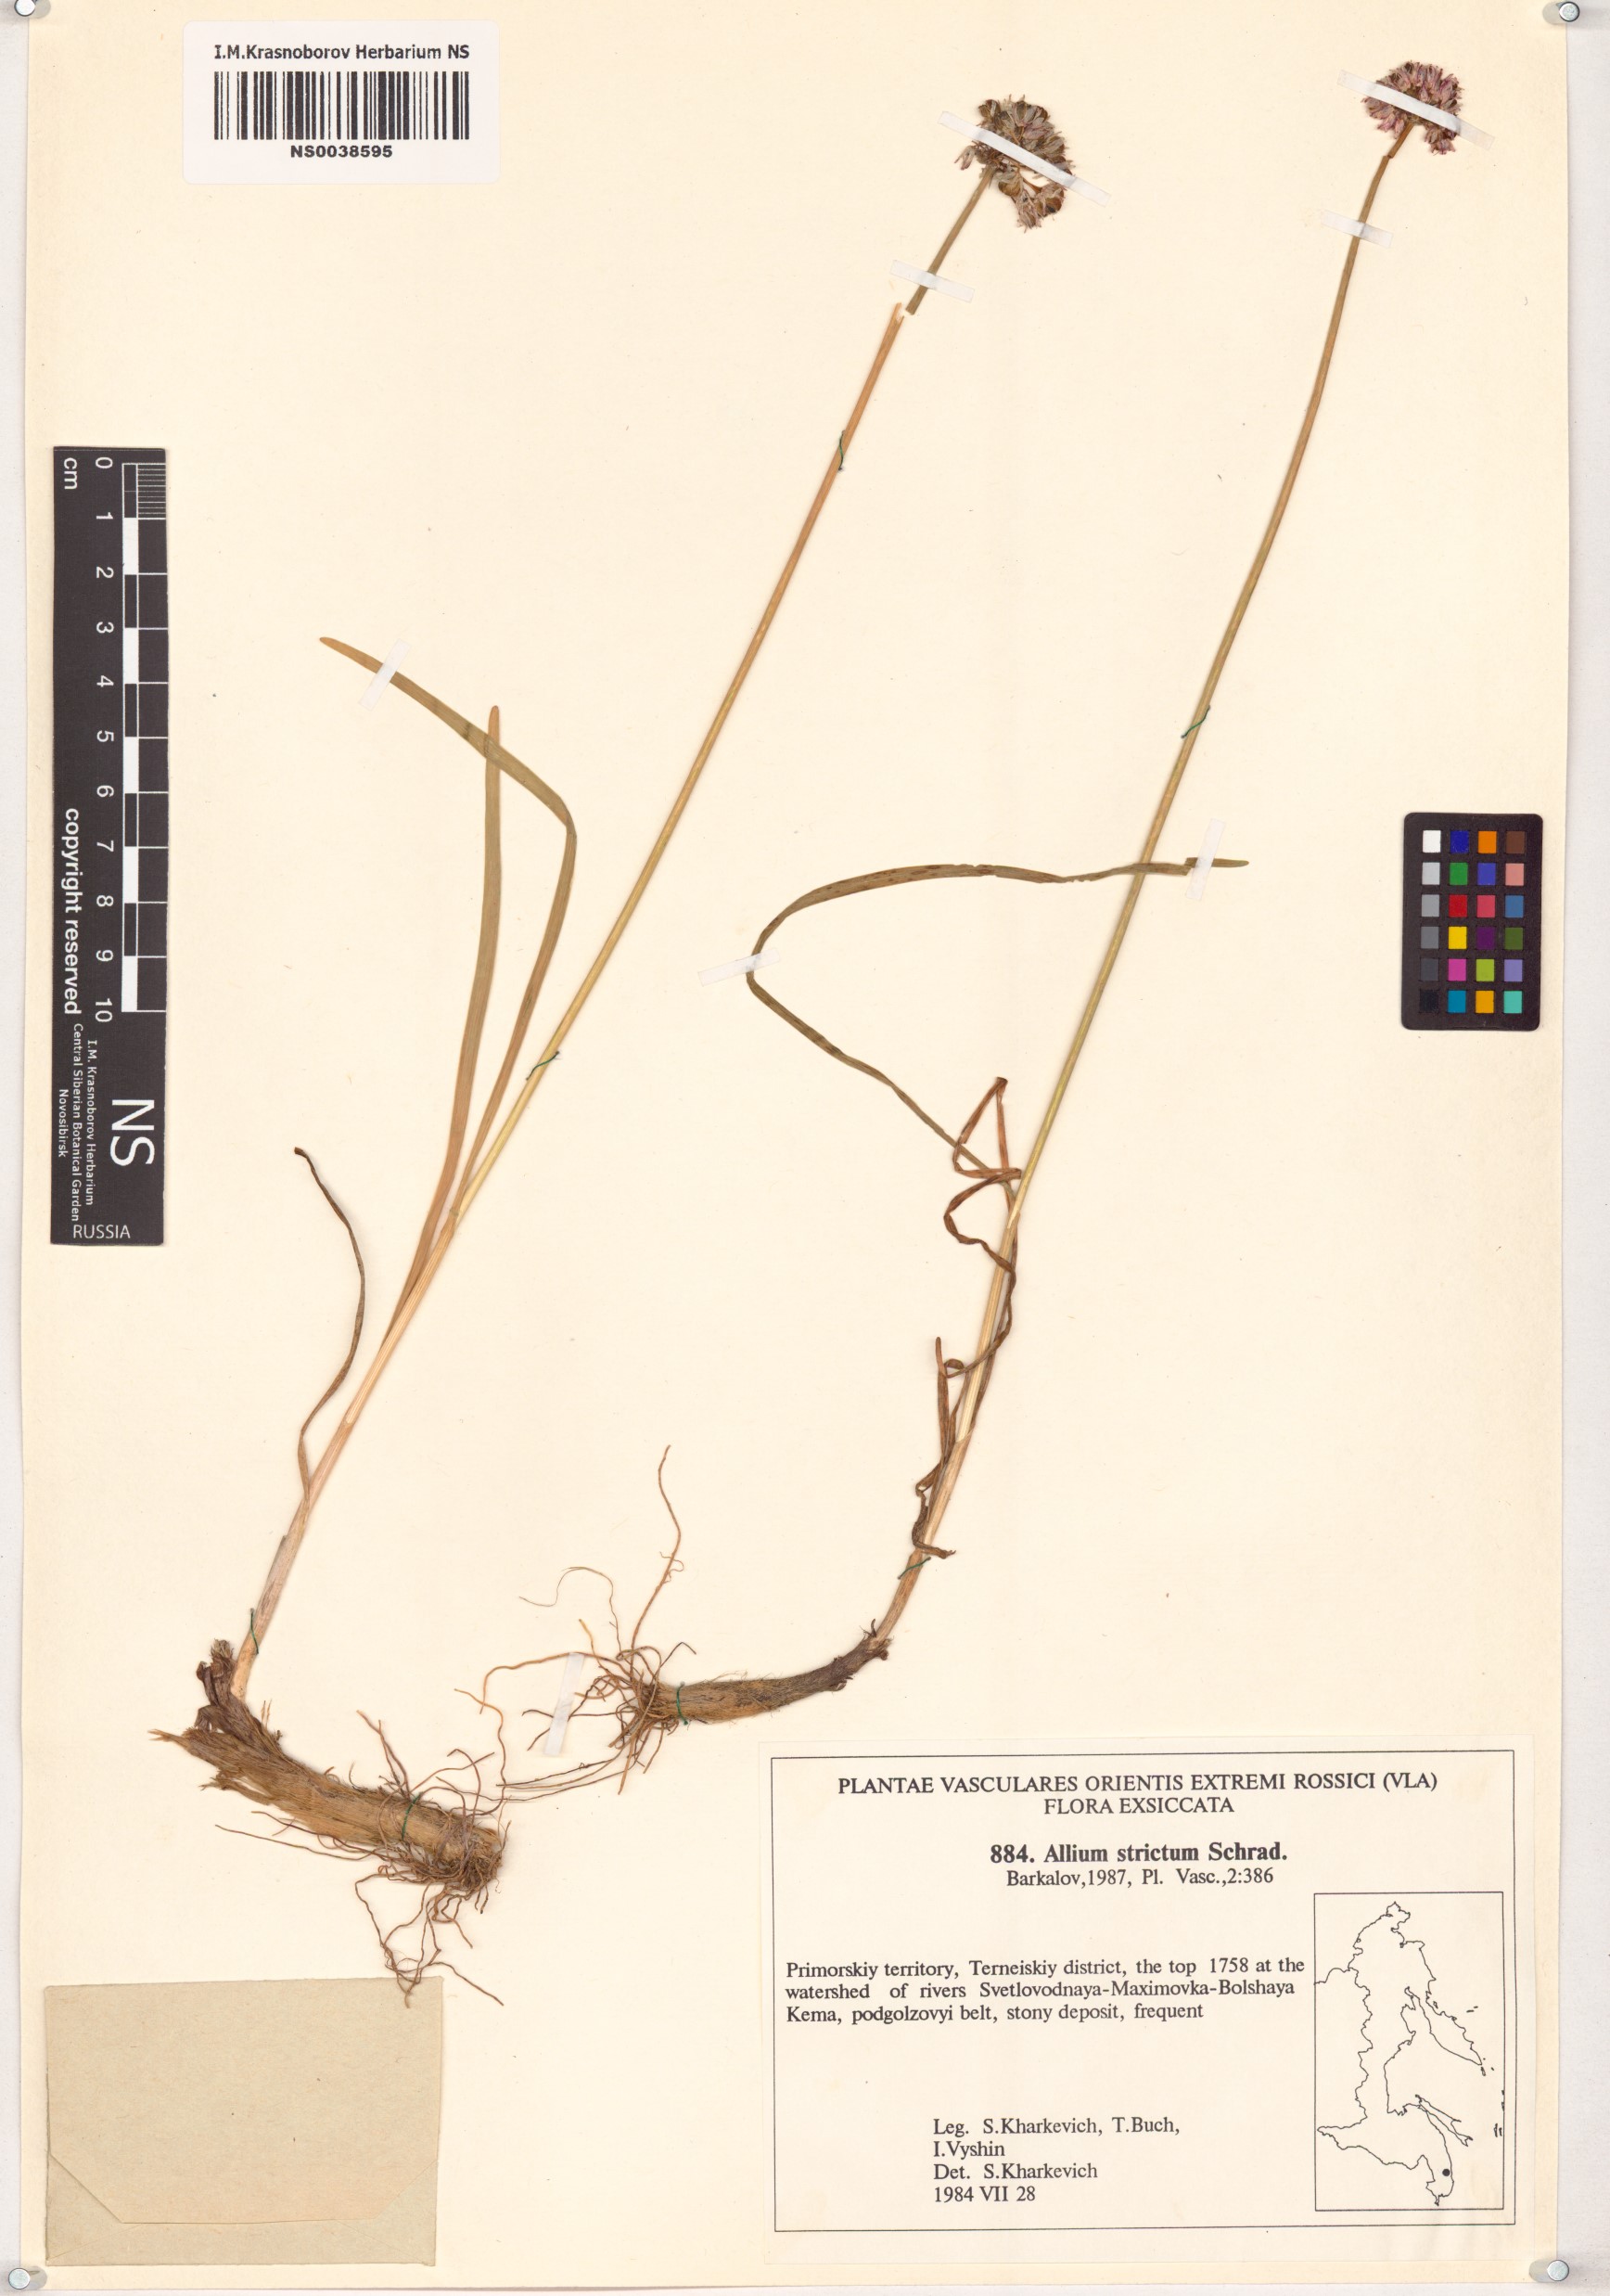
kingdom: Plantae
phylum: Tracheophyta
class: Liliopsida
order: Asparagales
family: Amaryllidaceae
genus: Allium
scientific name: Allium strictum
